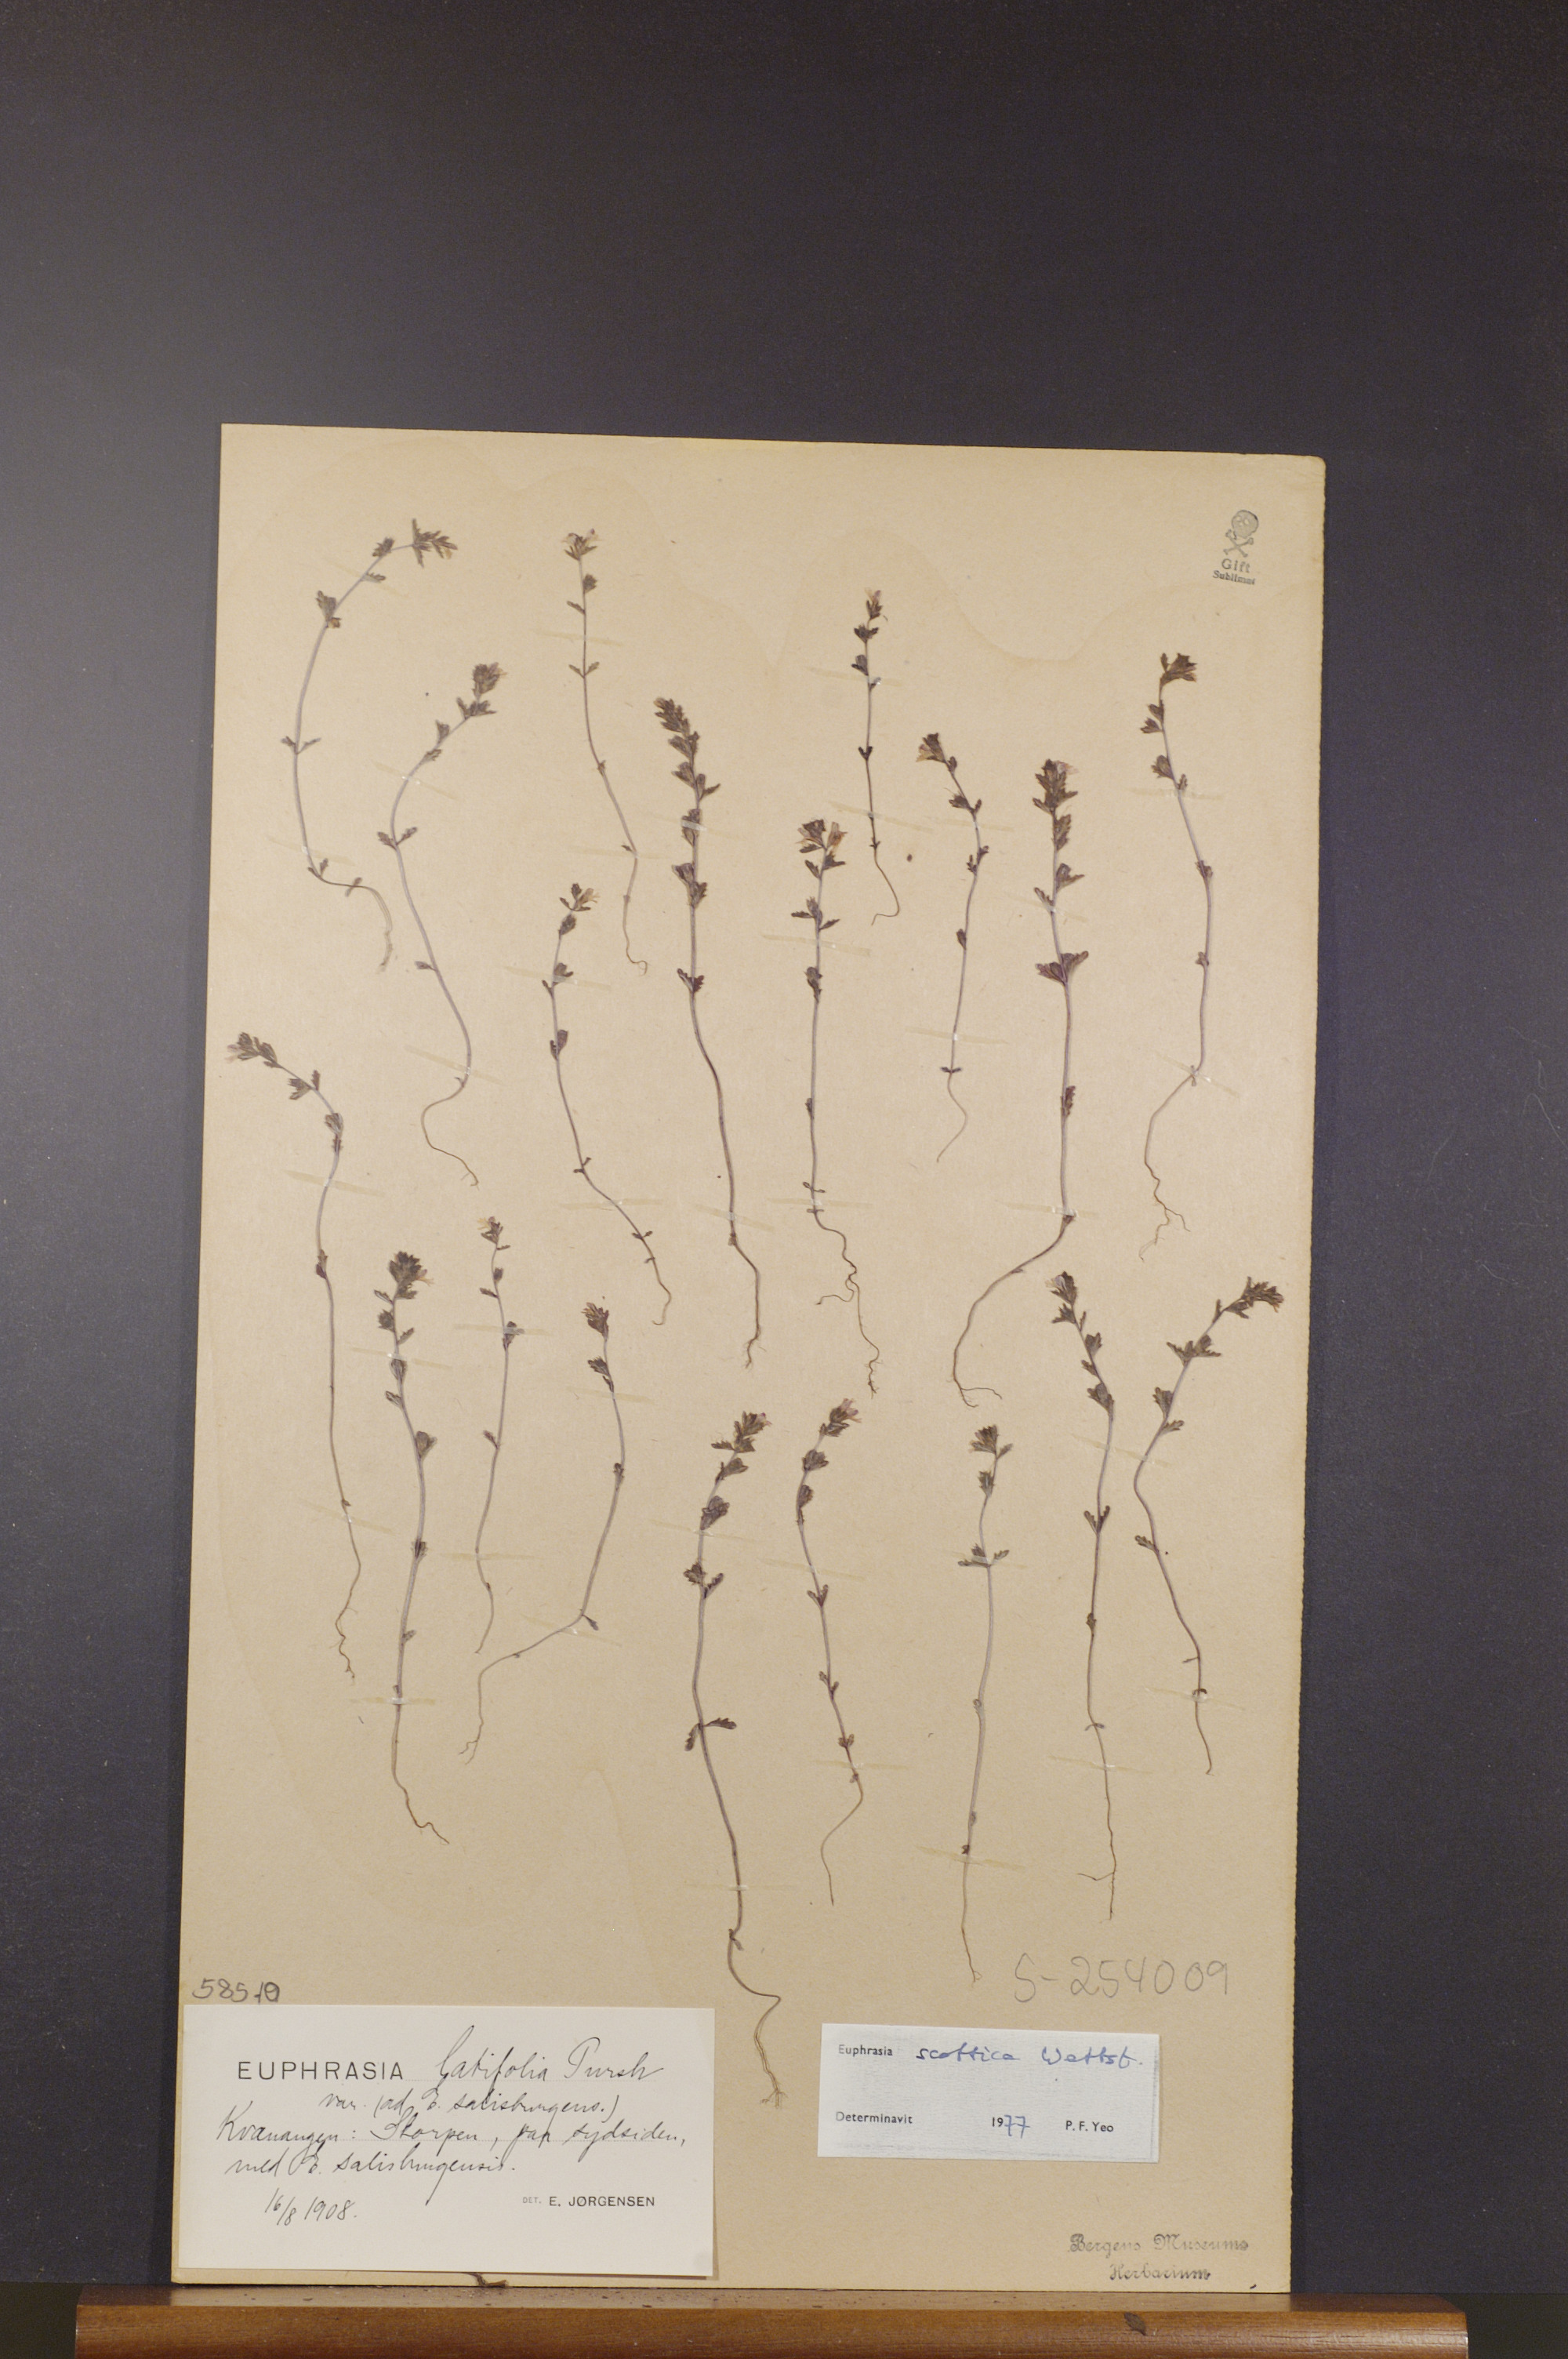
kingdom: Plantae
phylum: Tracheophyta
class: Magnoliopsida
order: Lamiales
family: Orobanchaceae
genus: Euphrasia
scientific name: Euphrasia scottica
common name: Slender scottish eyebright
